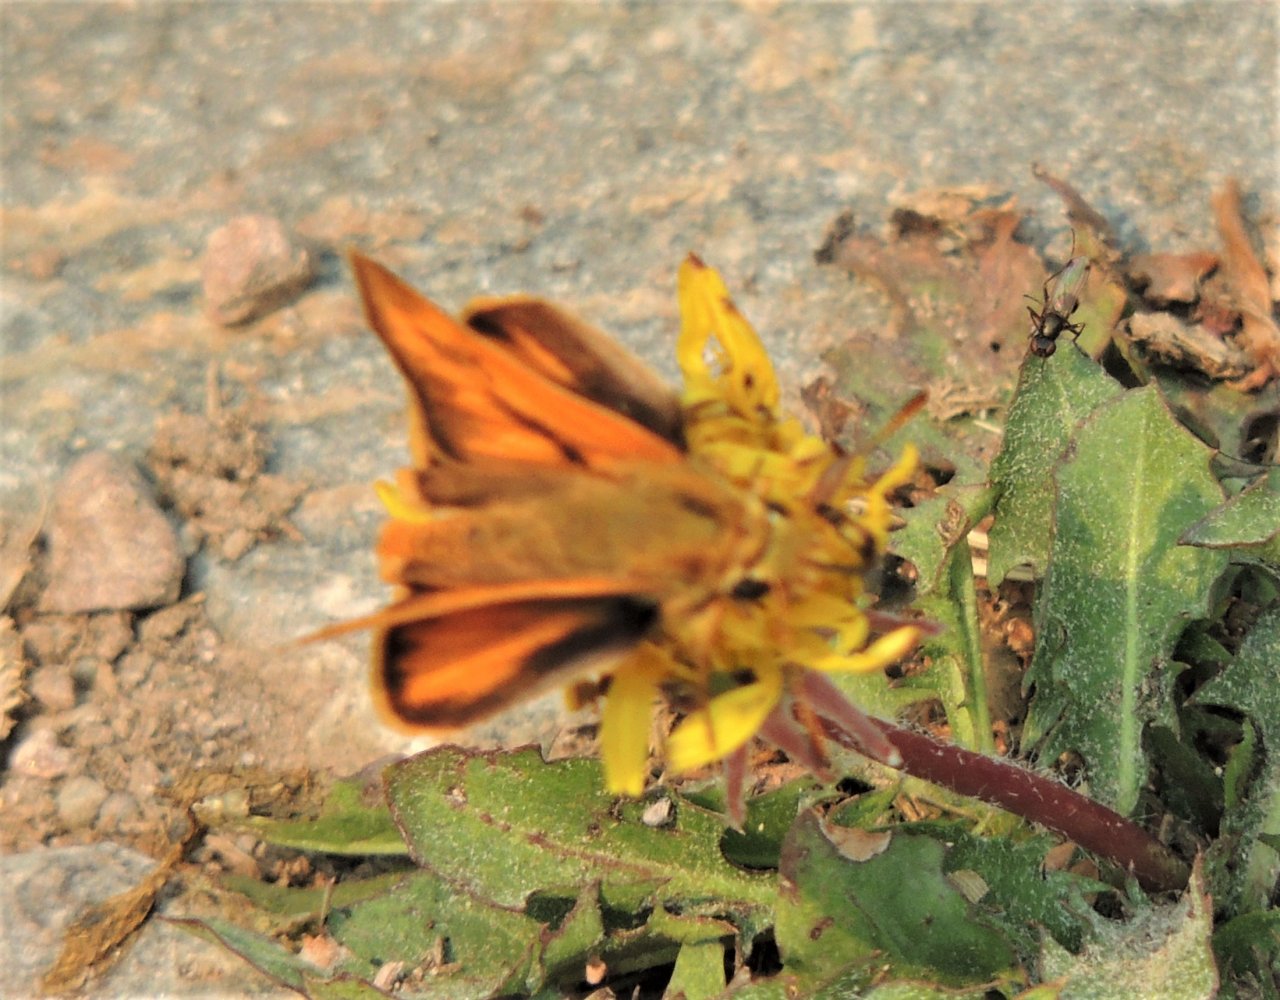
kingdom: Animalia
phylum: Arthropoda
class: Insecta
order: Lepidoptera
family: Hesperiidae
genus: Ochlodes
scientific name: Ochlodes sylvanoides
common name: Woodland Skipper
